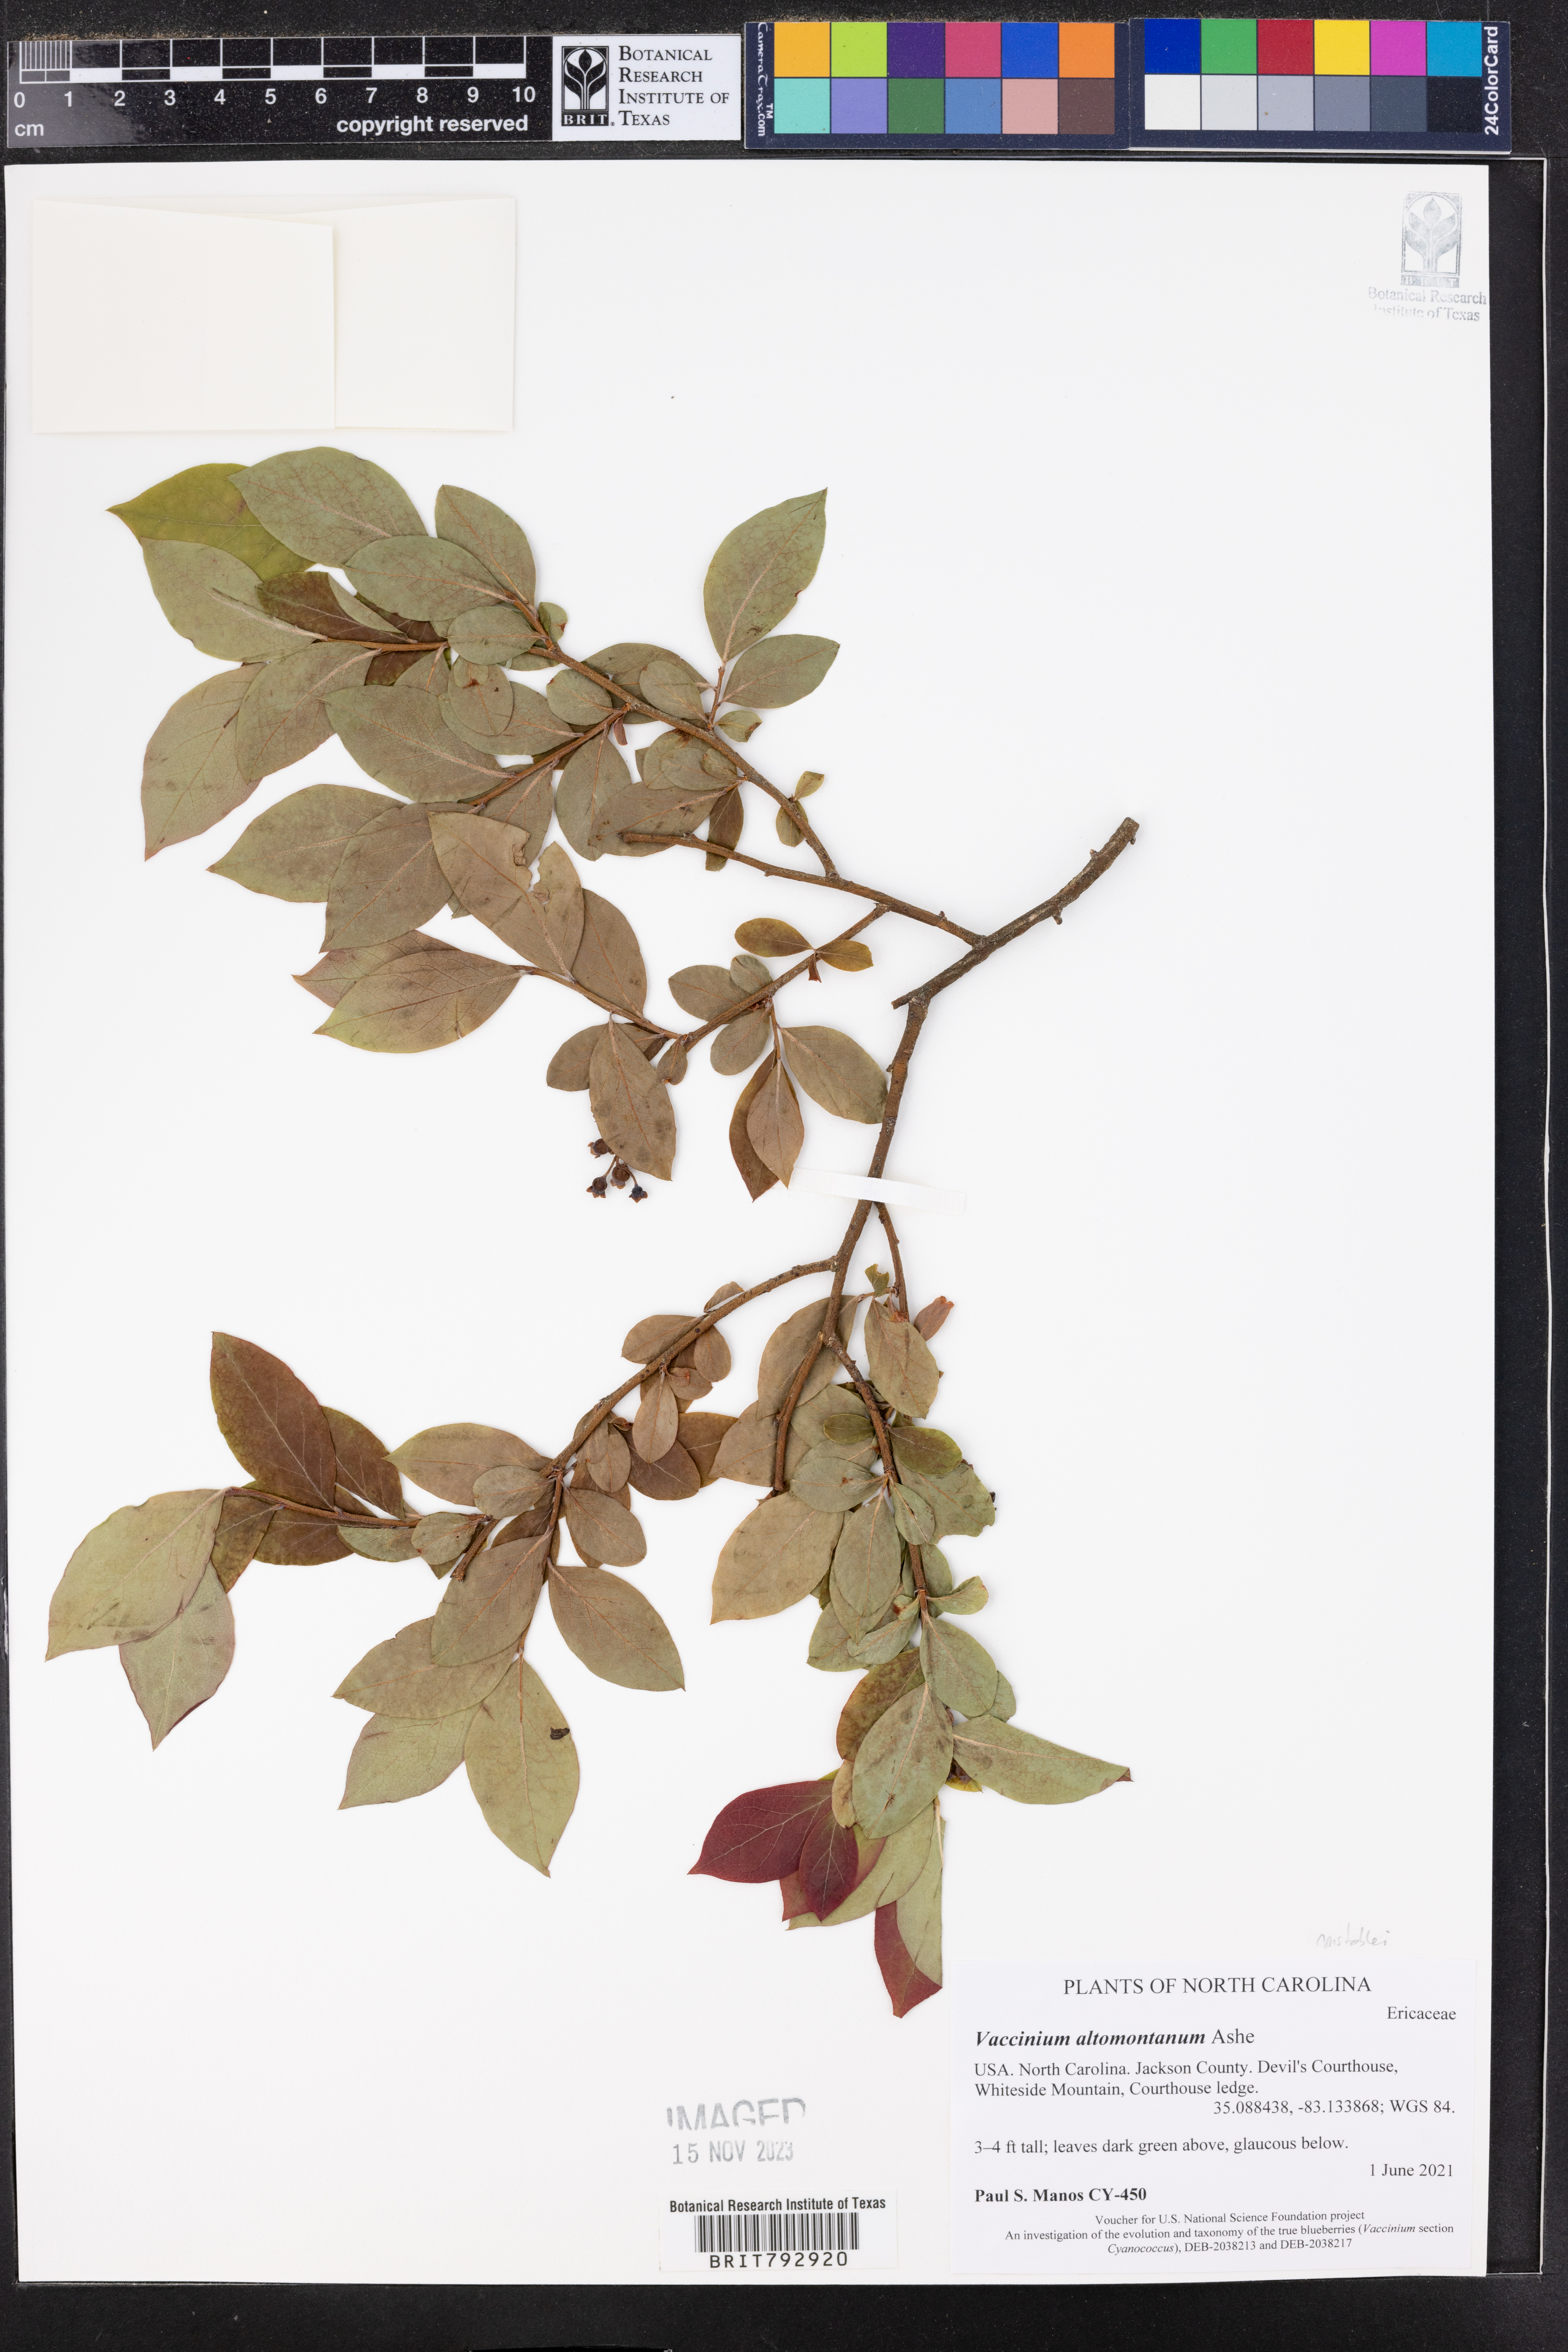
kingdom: Plantae
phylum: Tracheophyta
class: Magnoliopsida
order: Ericales
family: Ericaceae
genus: Vaccinium
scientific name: Vaccinium pallidum
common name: Blue ridge blueberry
